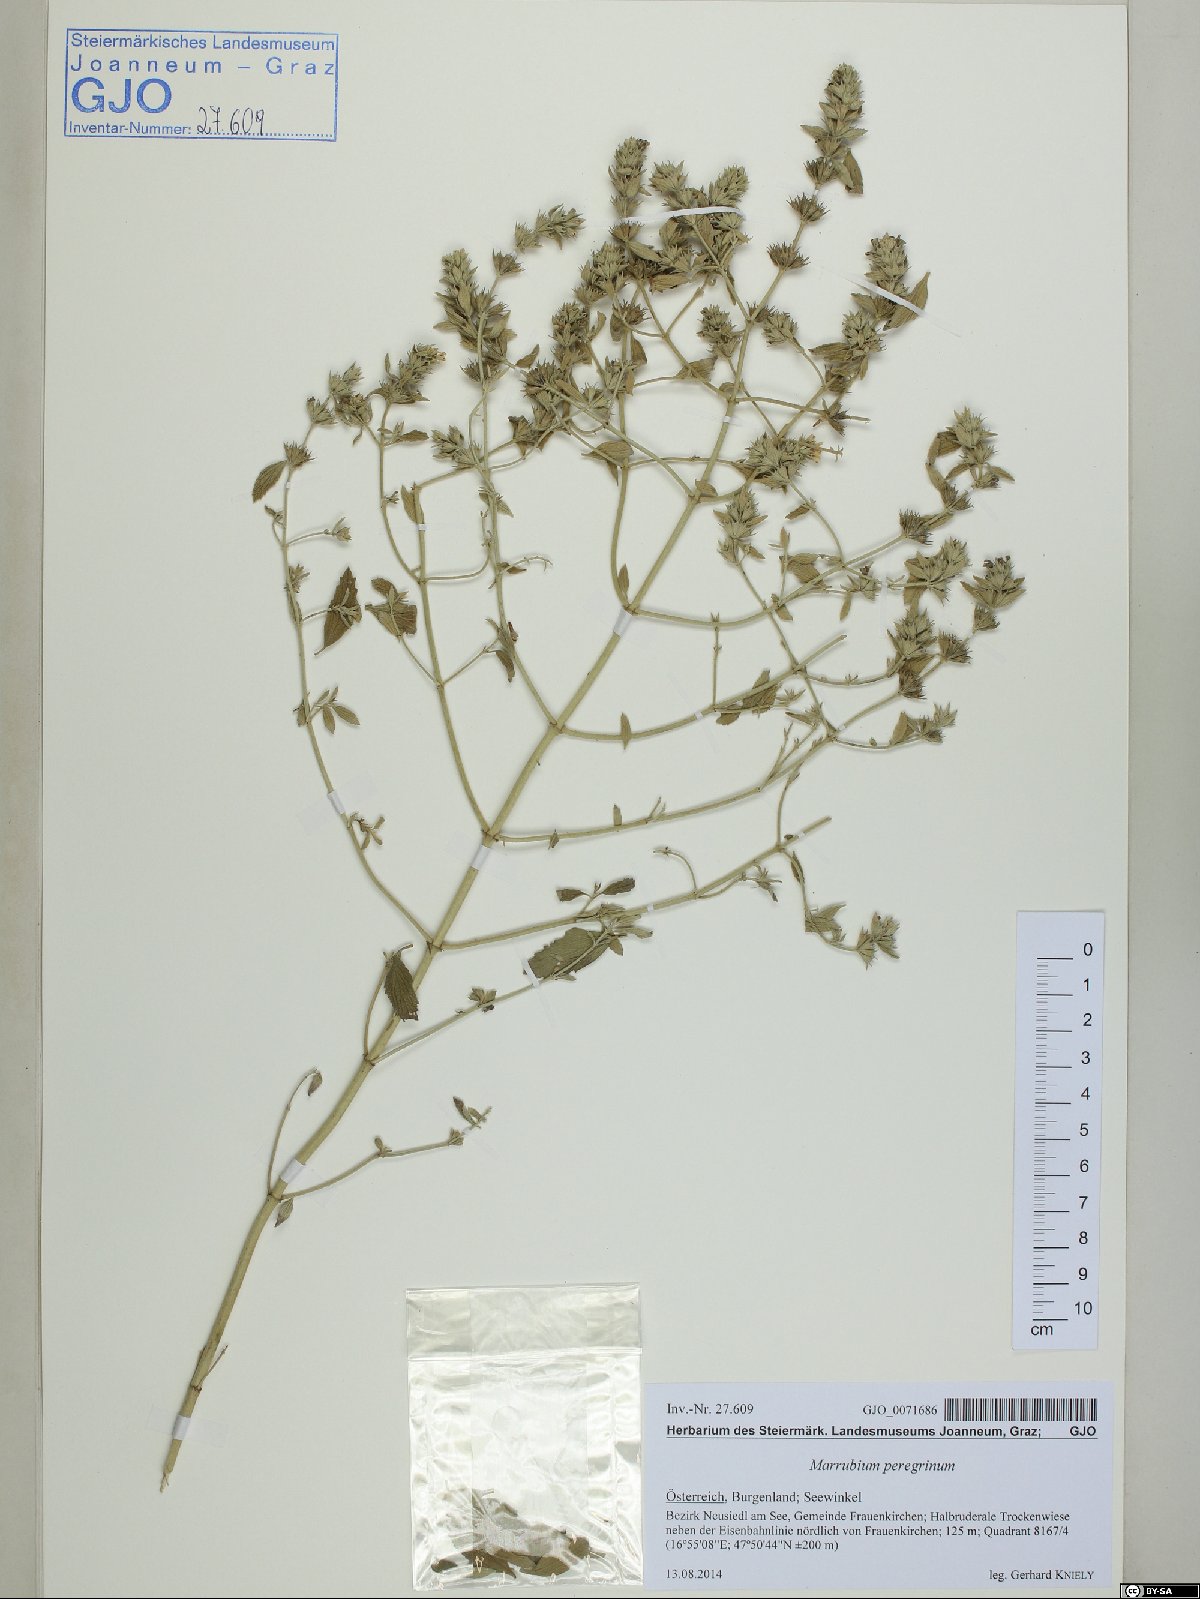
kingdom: Plantae
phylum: Tracheophyta
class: Magnoliopsida
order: Lamiales
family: Lamiaceae
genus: Marrubium
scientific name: Marrubium peregrinum
